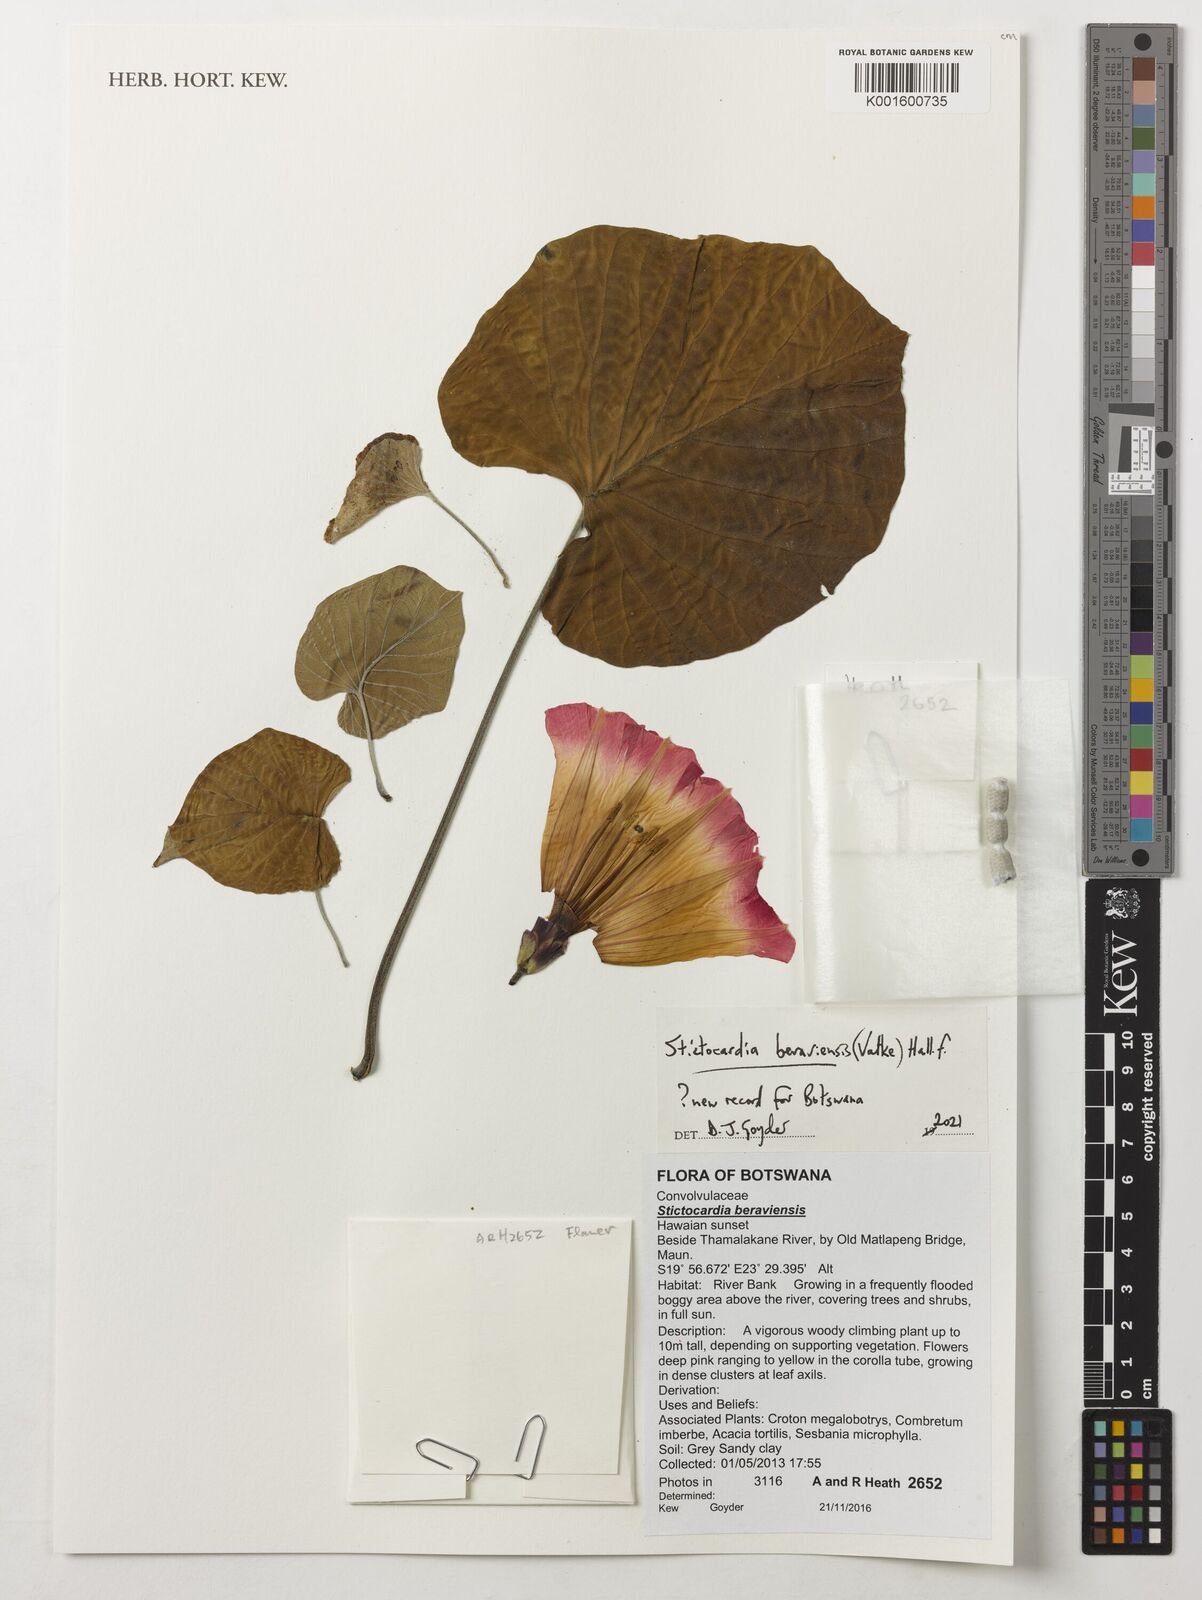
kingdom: Plantae
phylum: Tracheophyta
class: Magnoliopsida
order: Solanales
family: Convolvulaceae
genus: Stictocardia
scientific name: Stictocardia beraviensis
